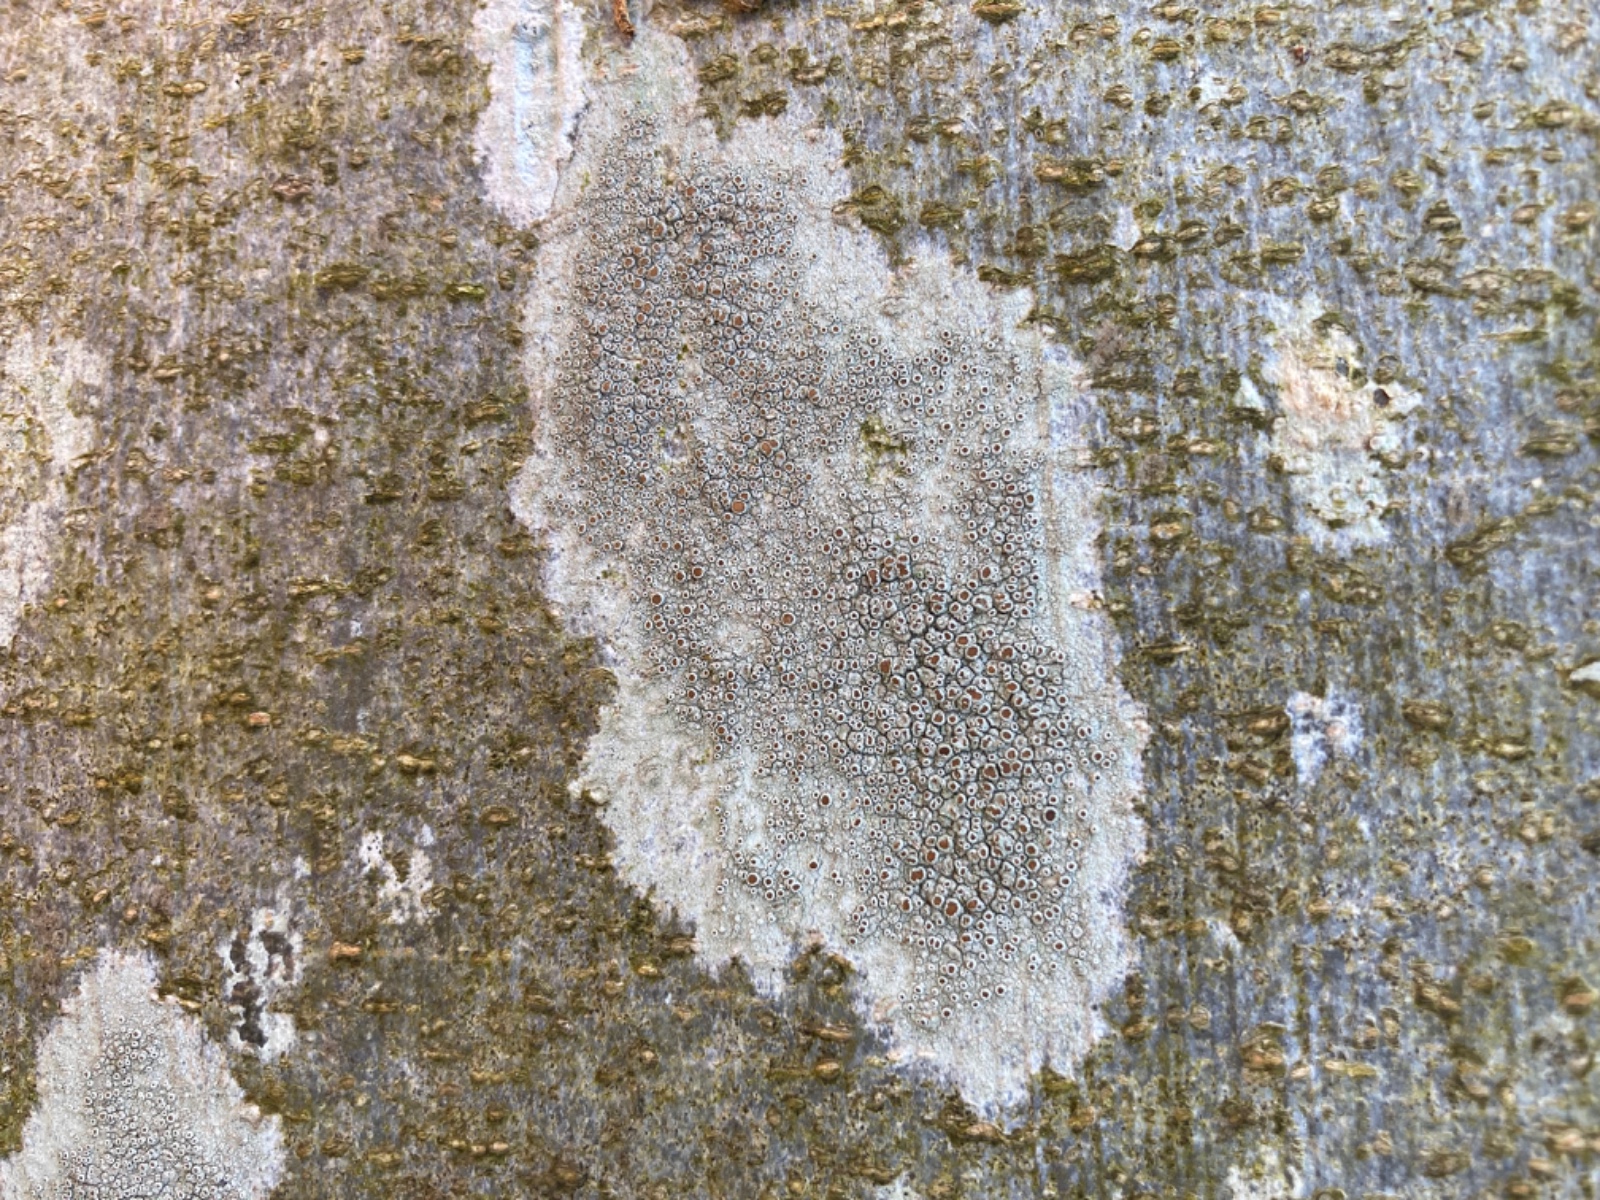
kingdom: Fungi
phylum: Ascomycota
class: Lecanoromycetes
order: Lecanorales
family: Lecanoraceae
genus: Lecanora
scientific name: Lecanora chlarotera
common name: brun kantskivelav
